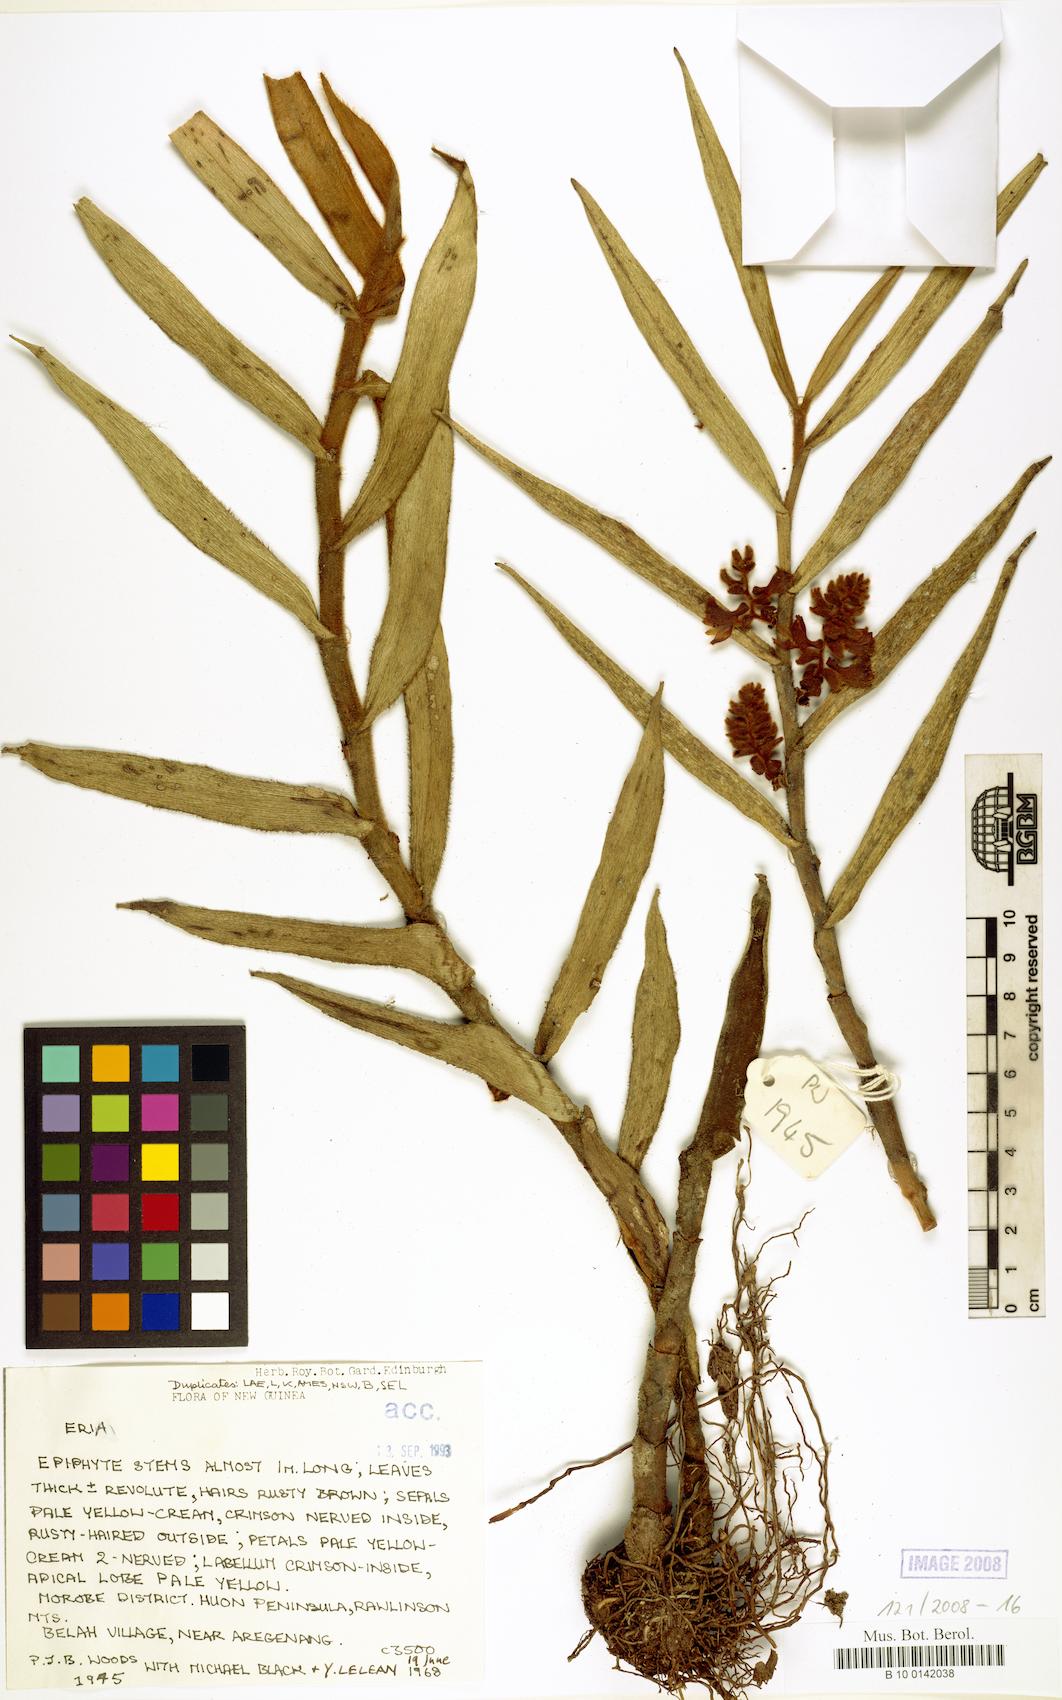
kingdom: Plantae
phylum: Tracheophyta
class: Liliopsida
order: Asparagales
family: Orchidaceae
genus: Eria
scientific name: Eria
